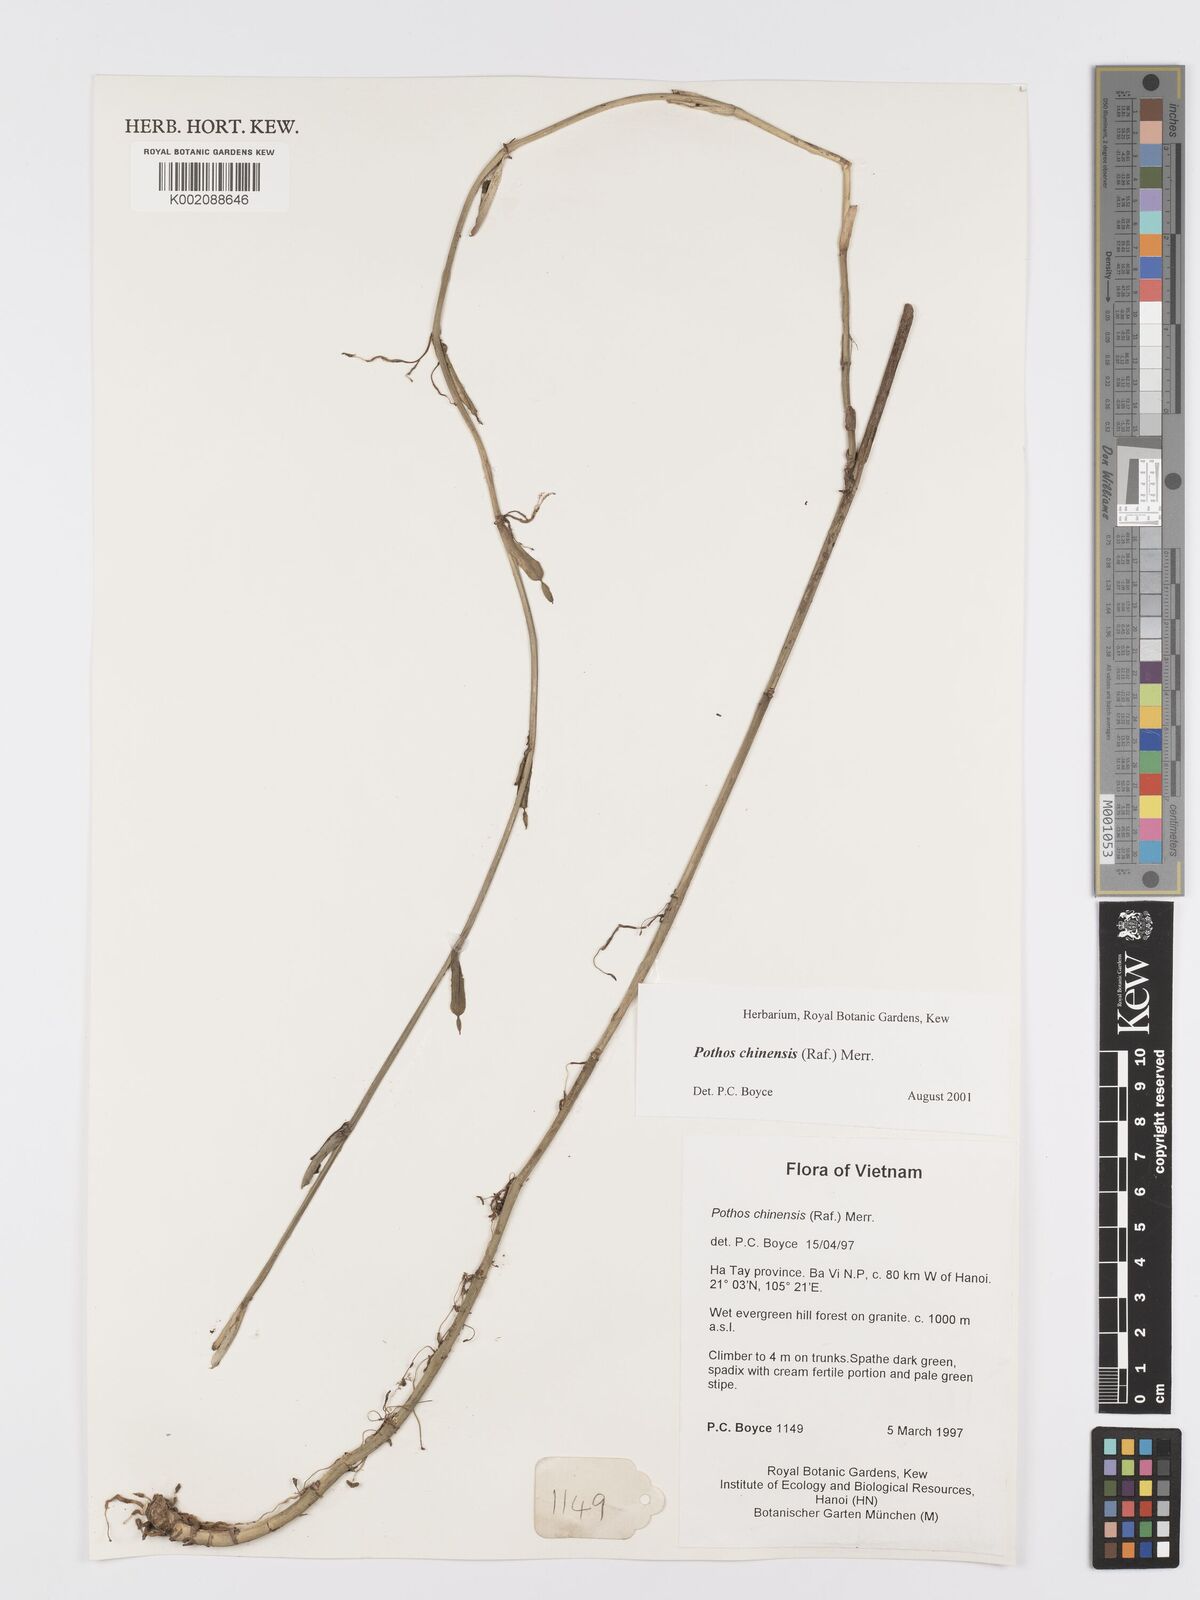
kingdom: Plantae
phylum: Tracheophyta
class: Liliopsida
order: Alismatales
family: Araceae
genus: Pothos
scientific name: Pothos chinensis
